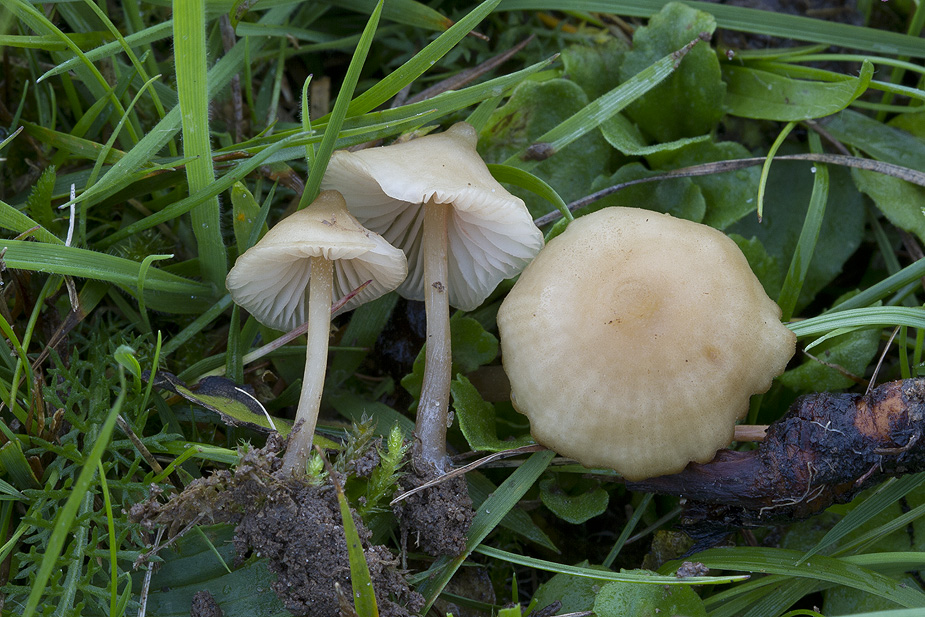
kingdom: Fungi
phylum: Basidiomycota
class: Agaricomycetes
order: Agaricales
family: Entolomataceae
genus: Entoloma
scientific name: Entoloma clandestinum
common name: tykbladet rødblad
